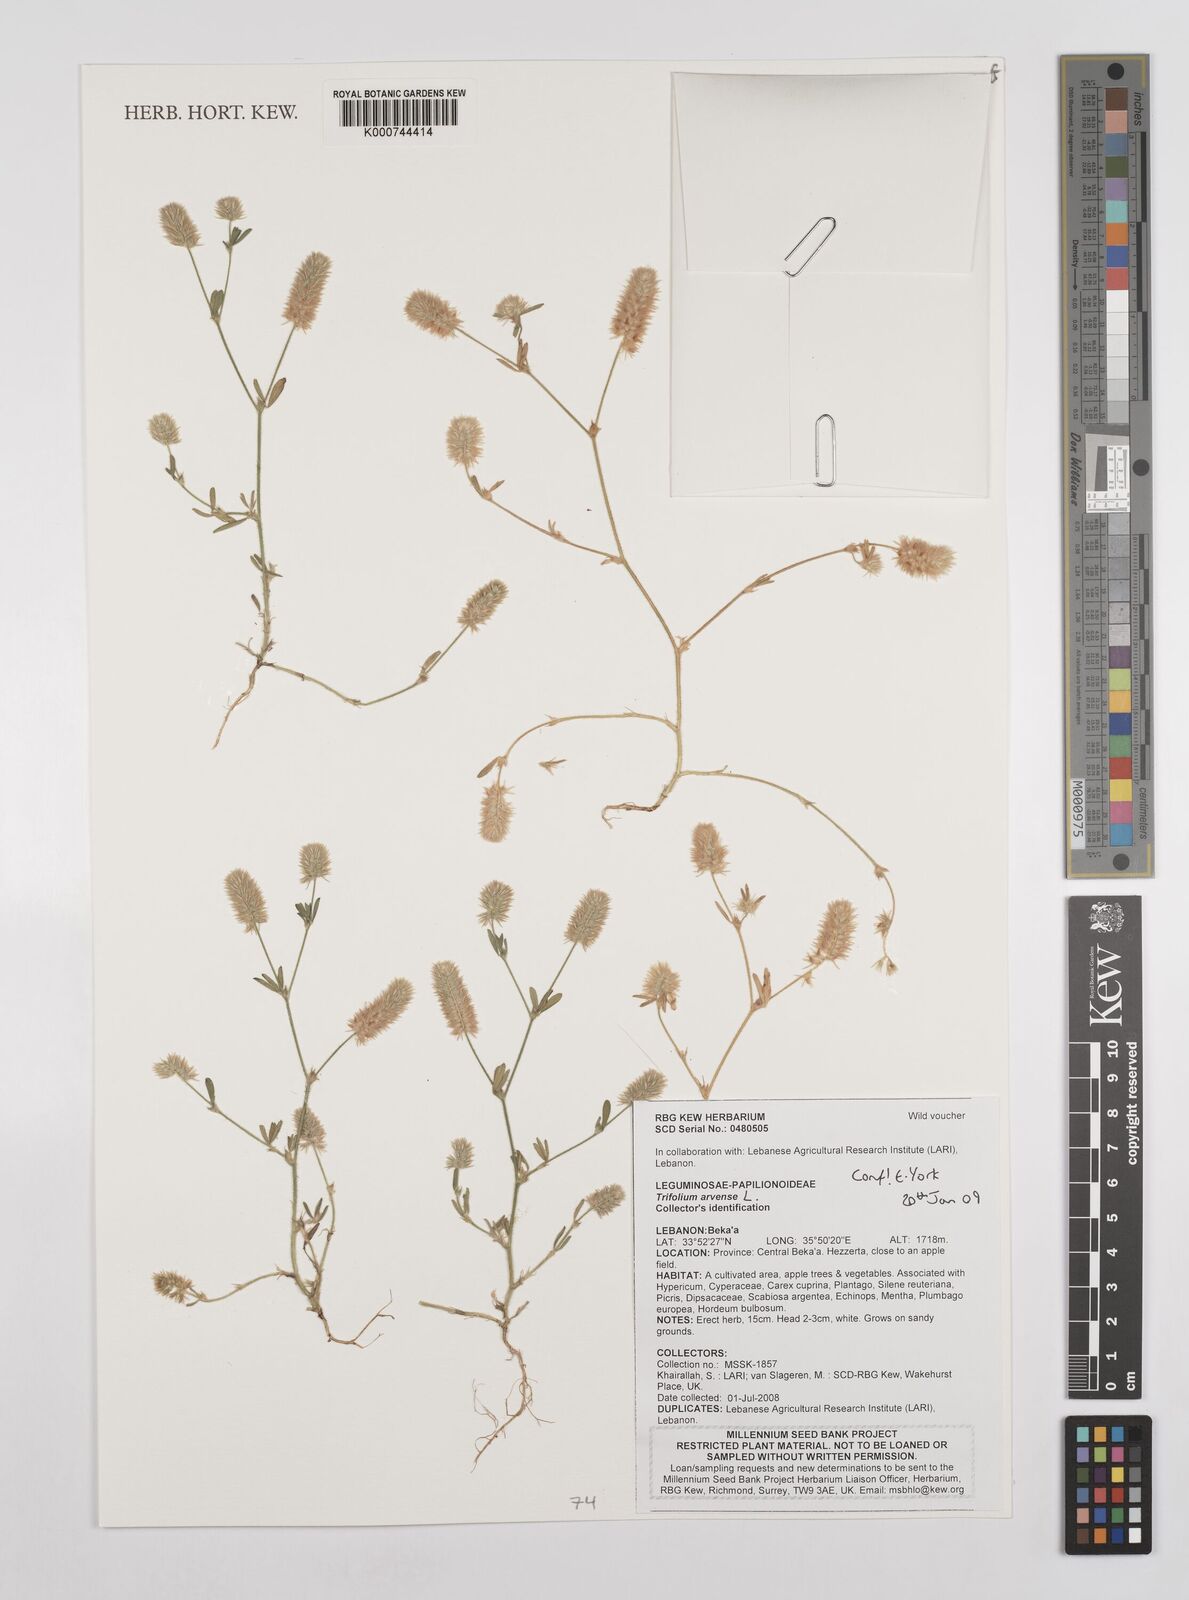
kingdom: Plantae
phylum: Tracheophyta
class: Magnoliopsida
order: Fabales
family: Fabaceae
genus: Trifolium
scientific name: Trifolium arvense
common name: Hare's-foot clover
